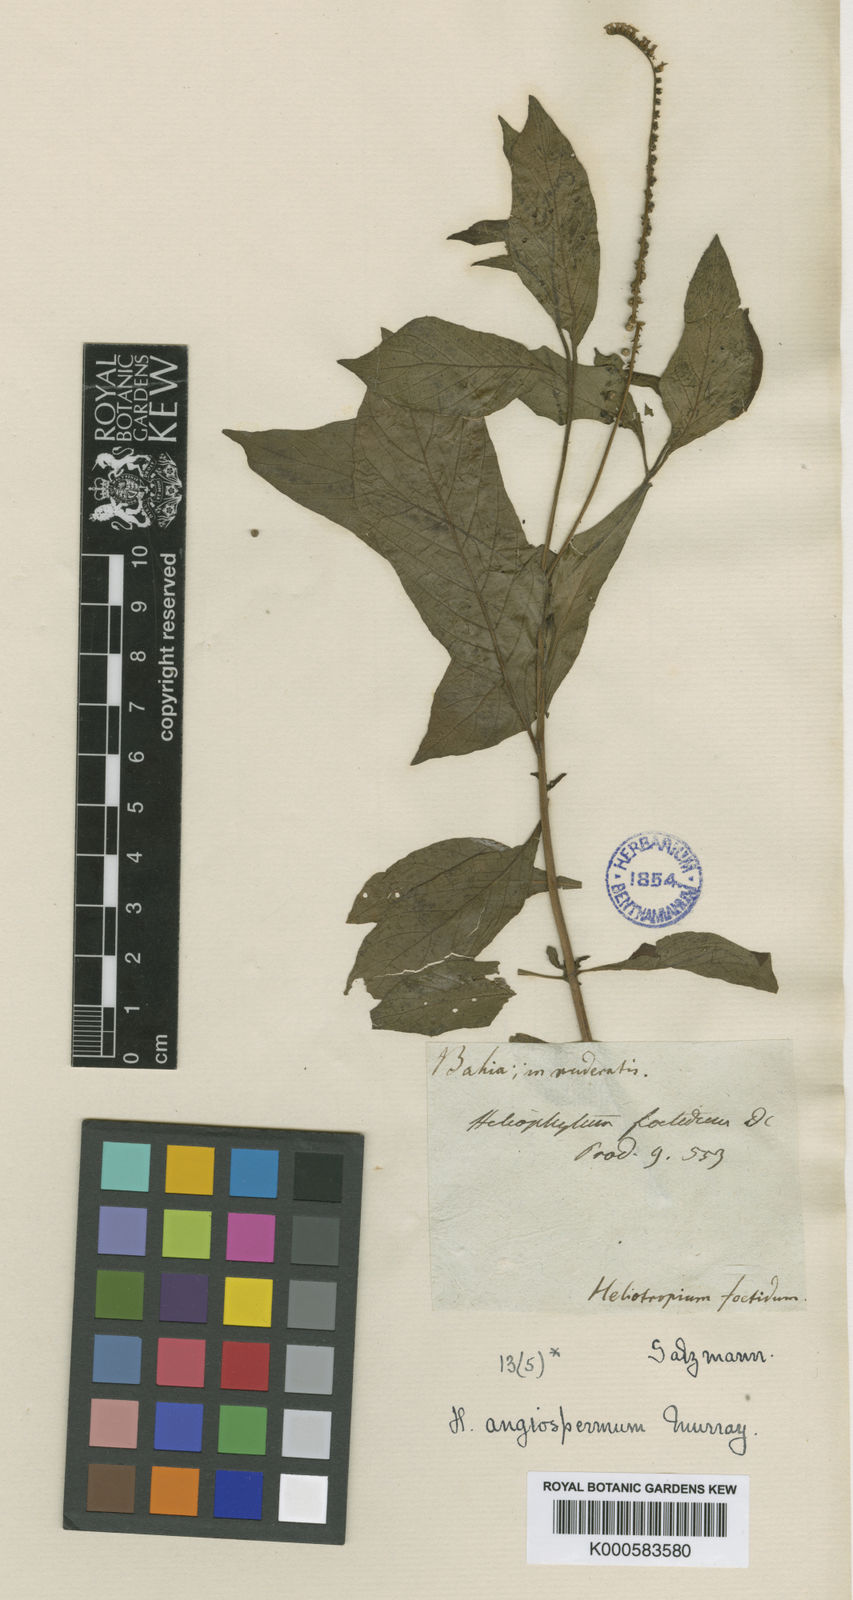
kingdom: Plantae
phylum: Tracheophyta
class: Magnoliopsida
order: Boraginales
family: Heliotropiaceae
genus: Heliotropium
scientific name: Heliotropium angiospermum
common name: Eye bright
